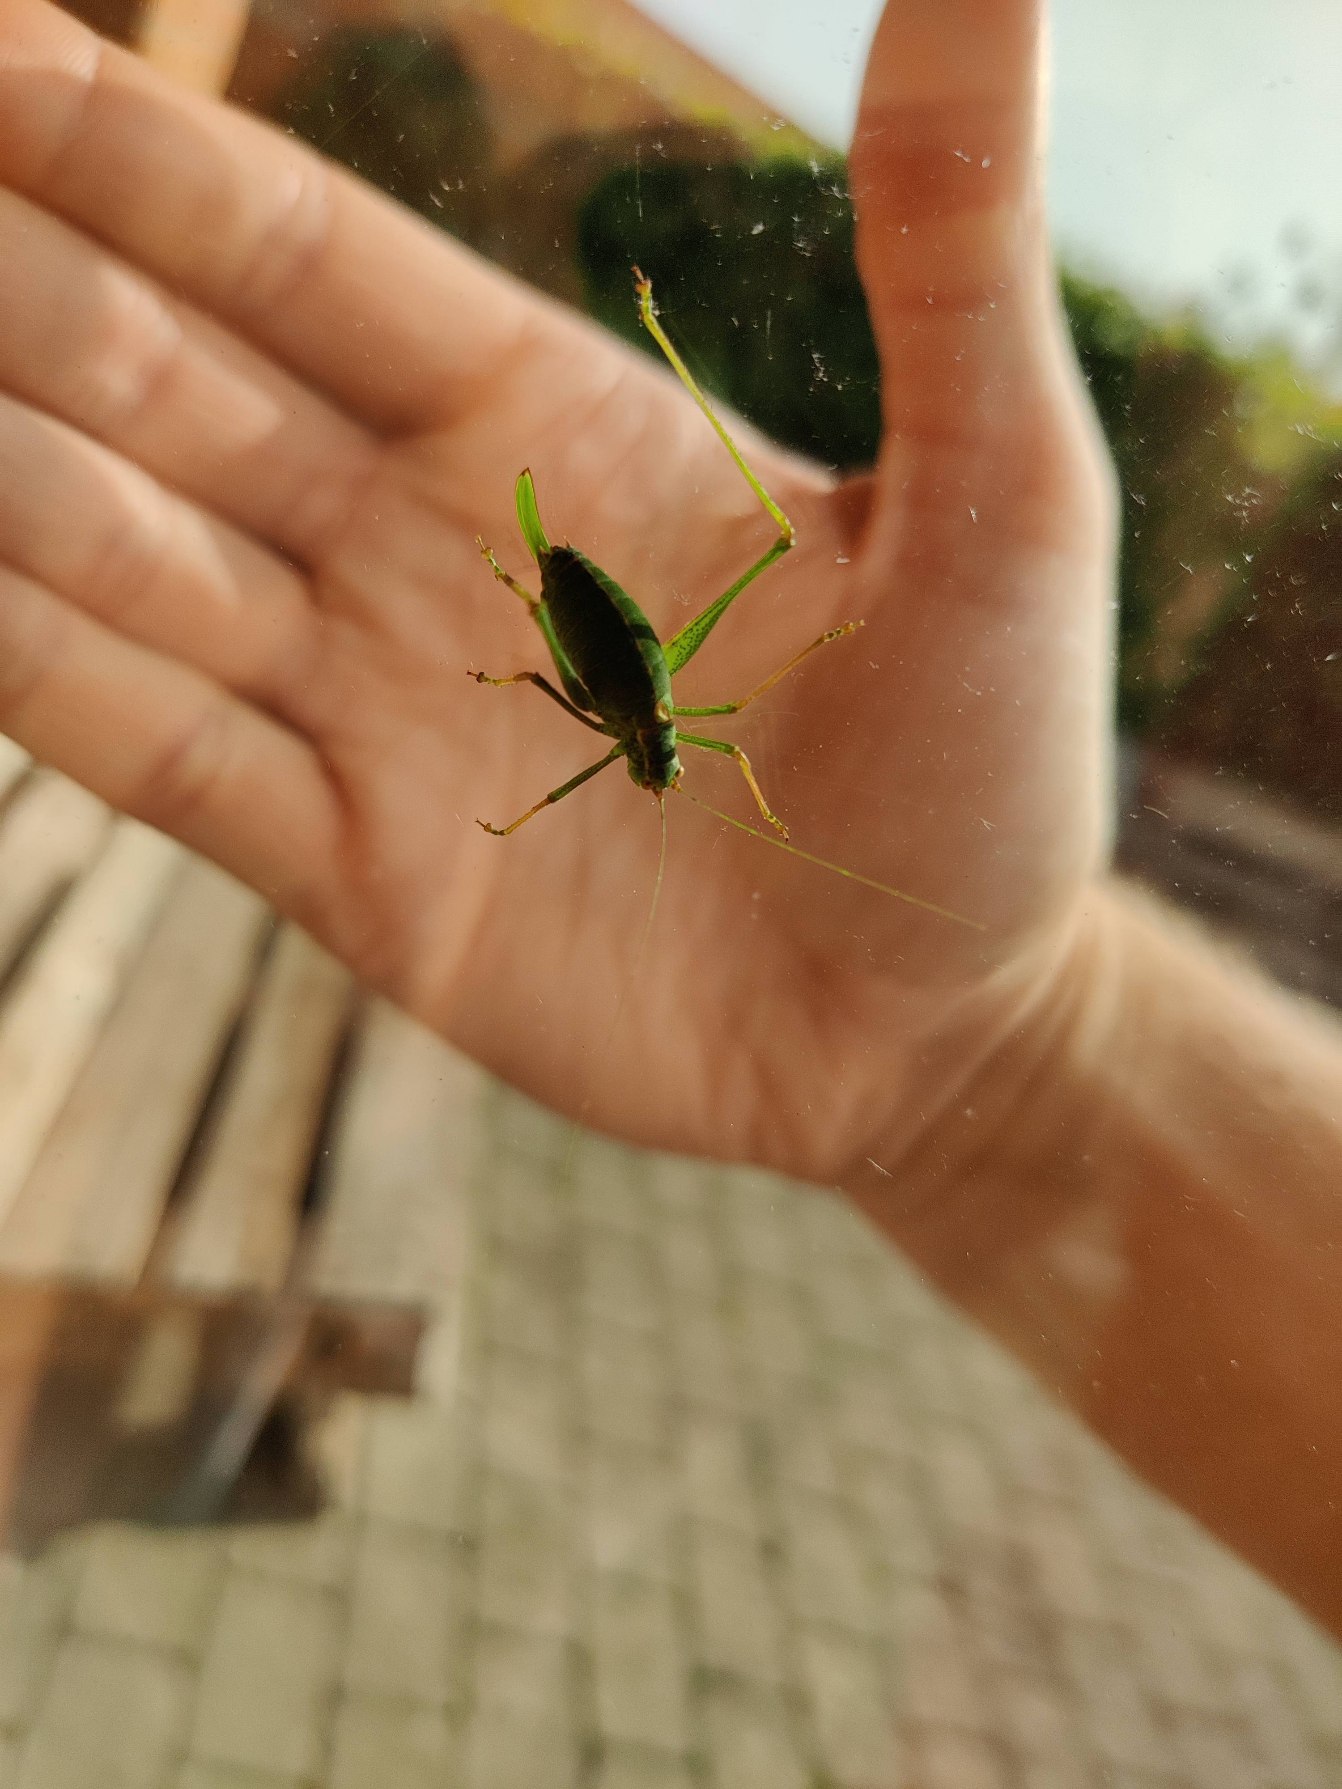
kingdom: Animalia
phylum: Arthropoda
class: Insecta
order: Orthoptera
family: Tettigoniidae
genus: Leptophyes
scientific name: Leptophyes punctatissima
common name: Krumknivgræshoppe
